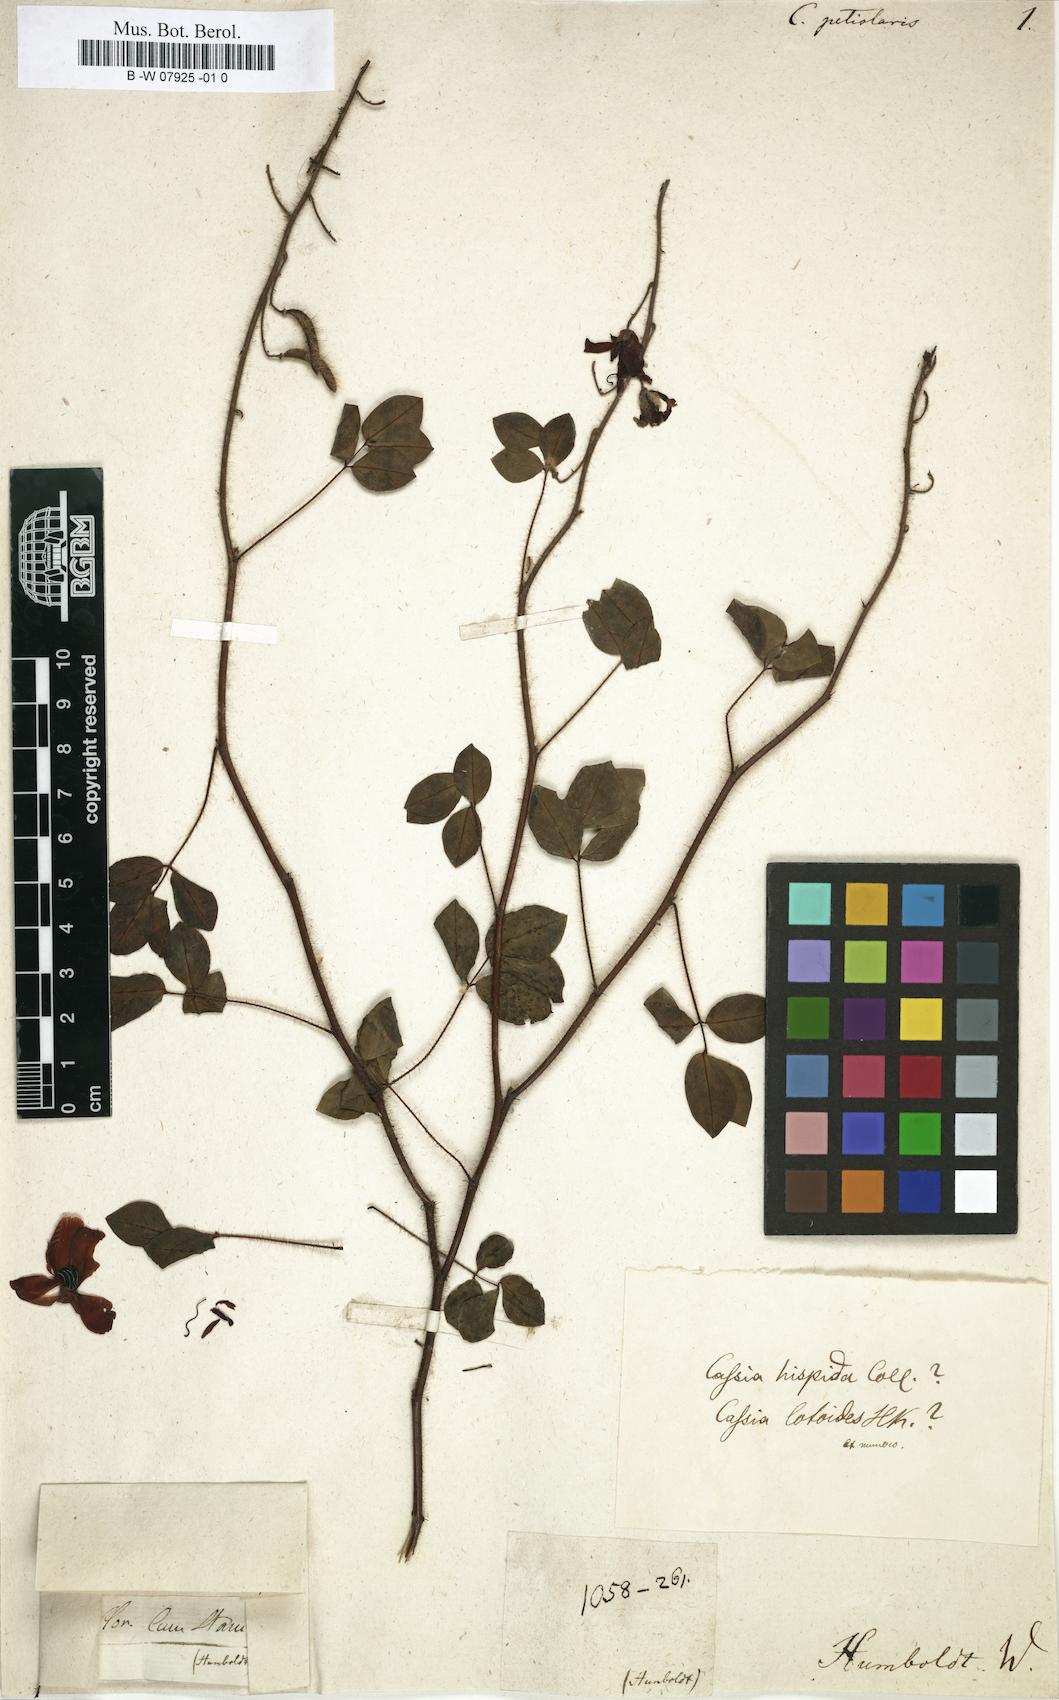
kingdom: Plantae
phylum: Tracheophyta
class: Magnoliopsida
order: Fabales
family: Fabaceae
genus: Cassia
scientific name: Cassia
